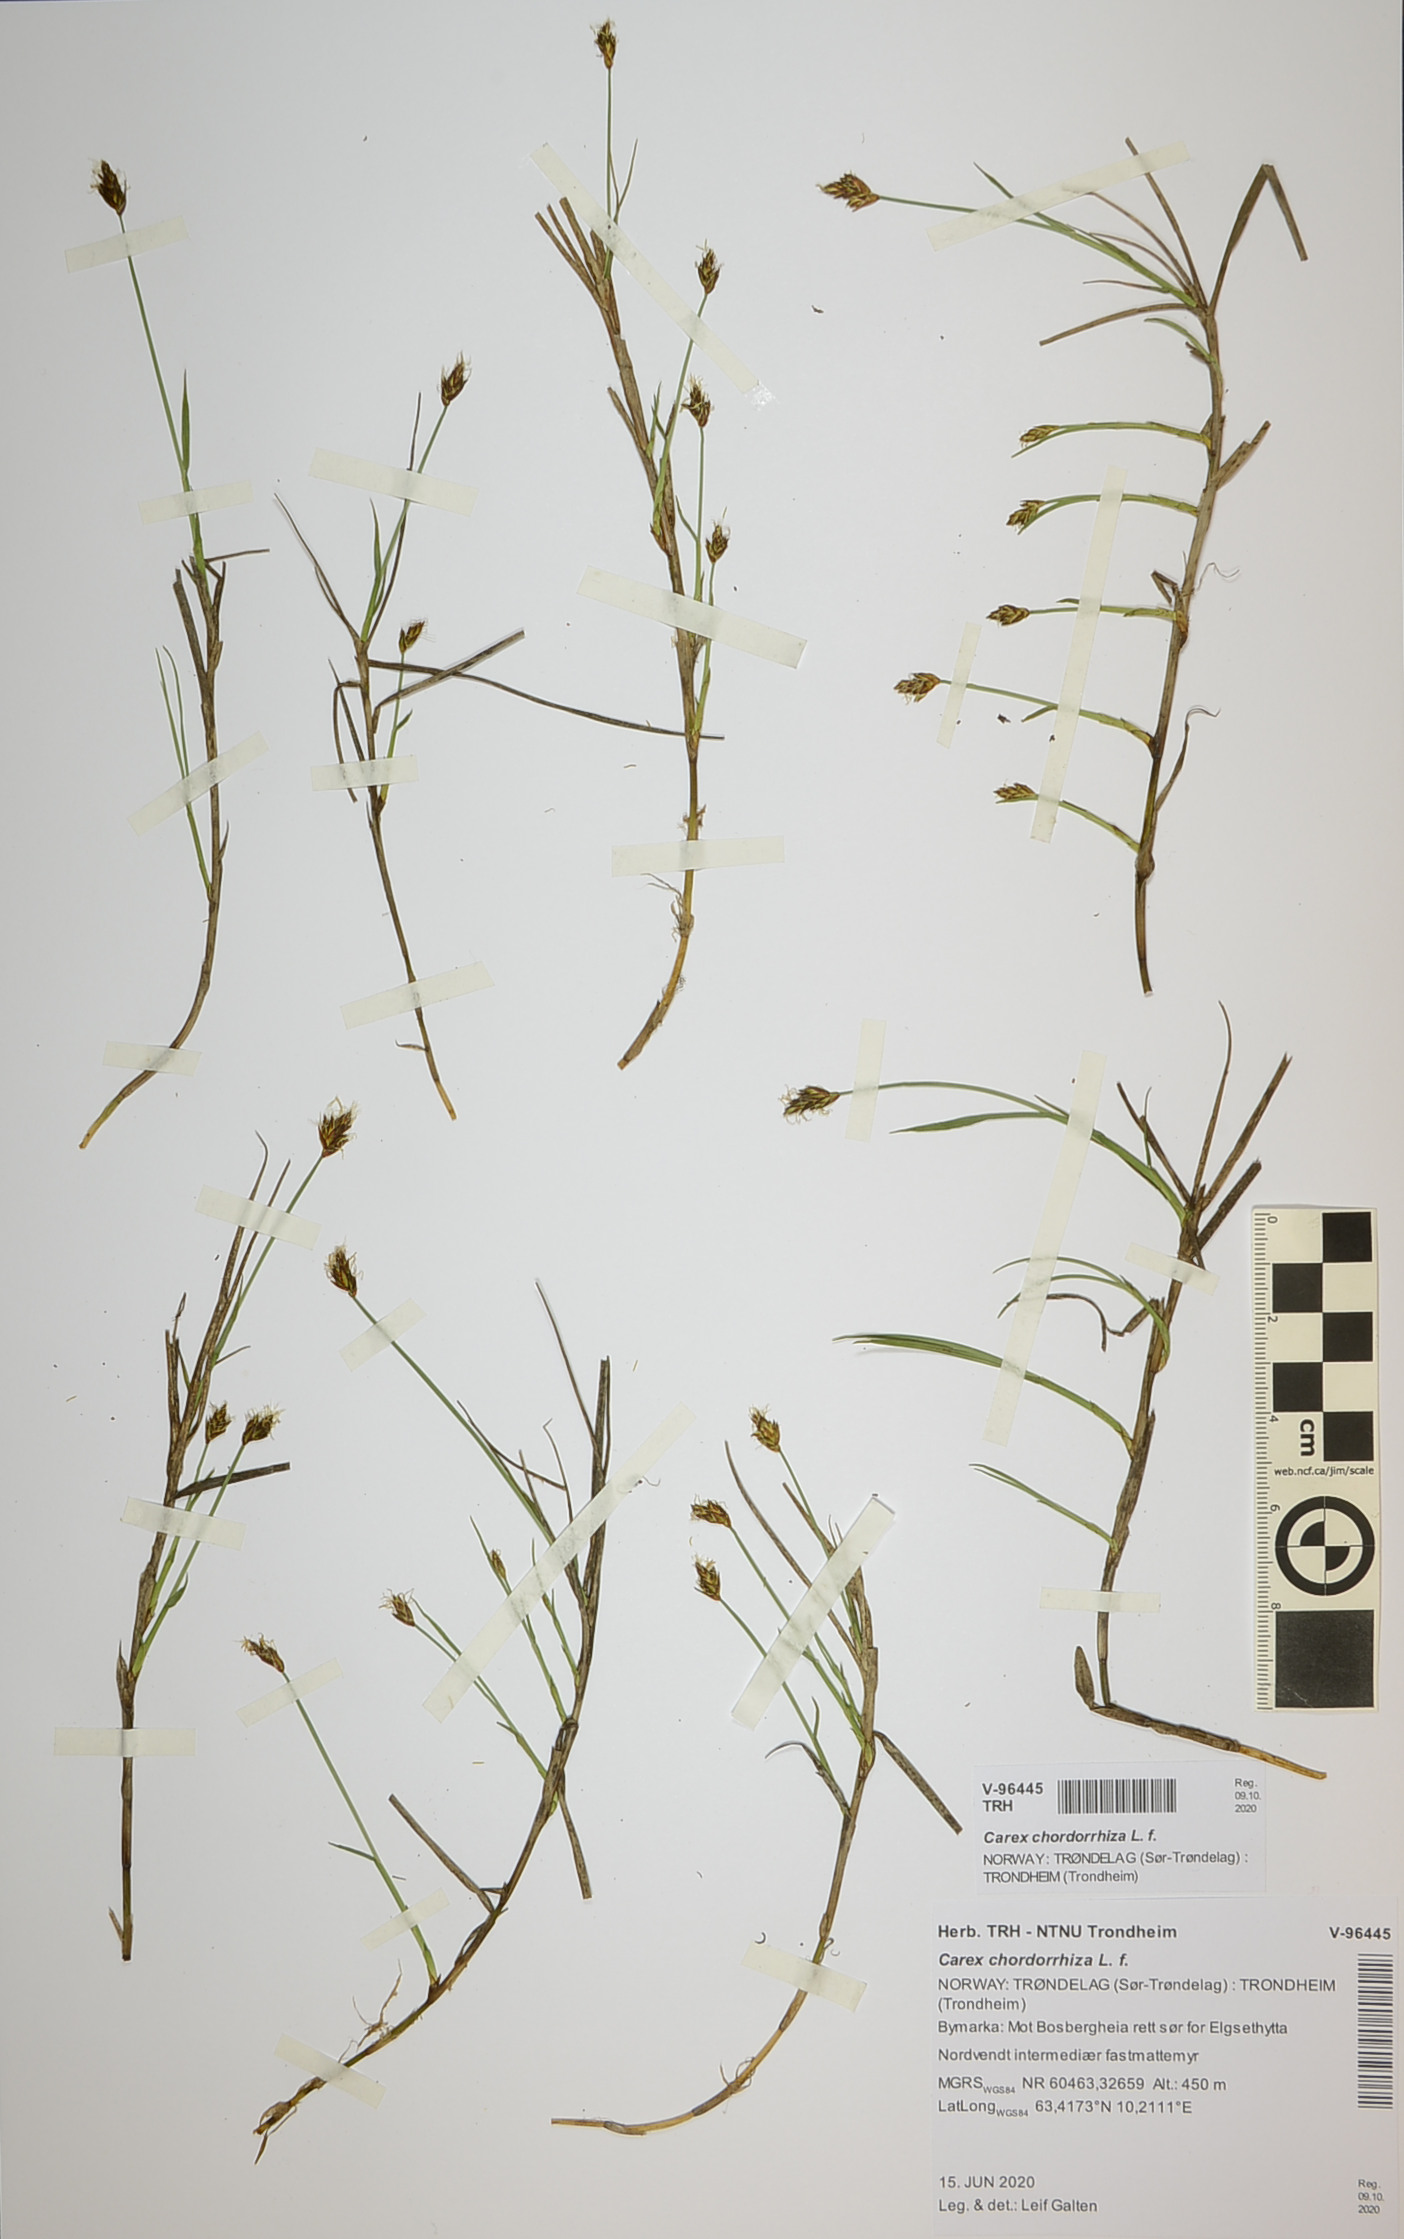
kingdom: Plantae
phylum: Tracheophyta
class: Liliopsida
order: Poales
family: Cyperaceae
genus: Carex
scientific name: Carex chordorrhiza
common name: String sedge
